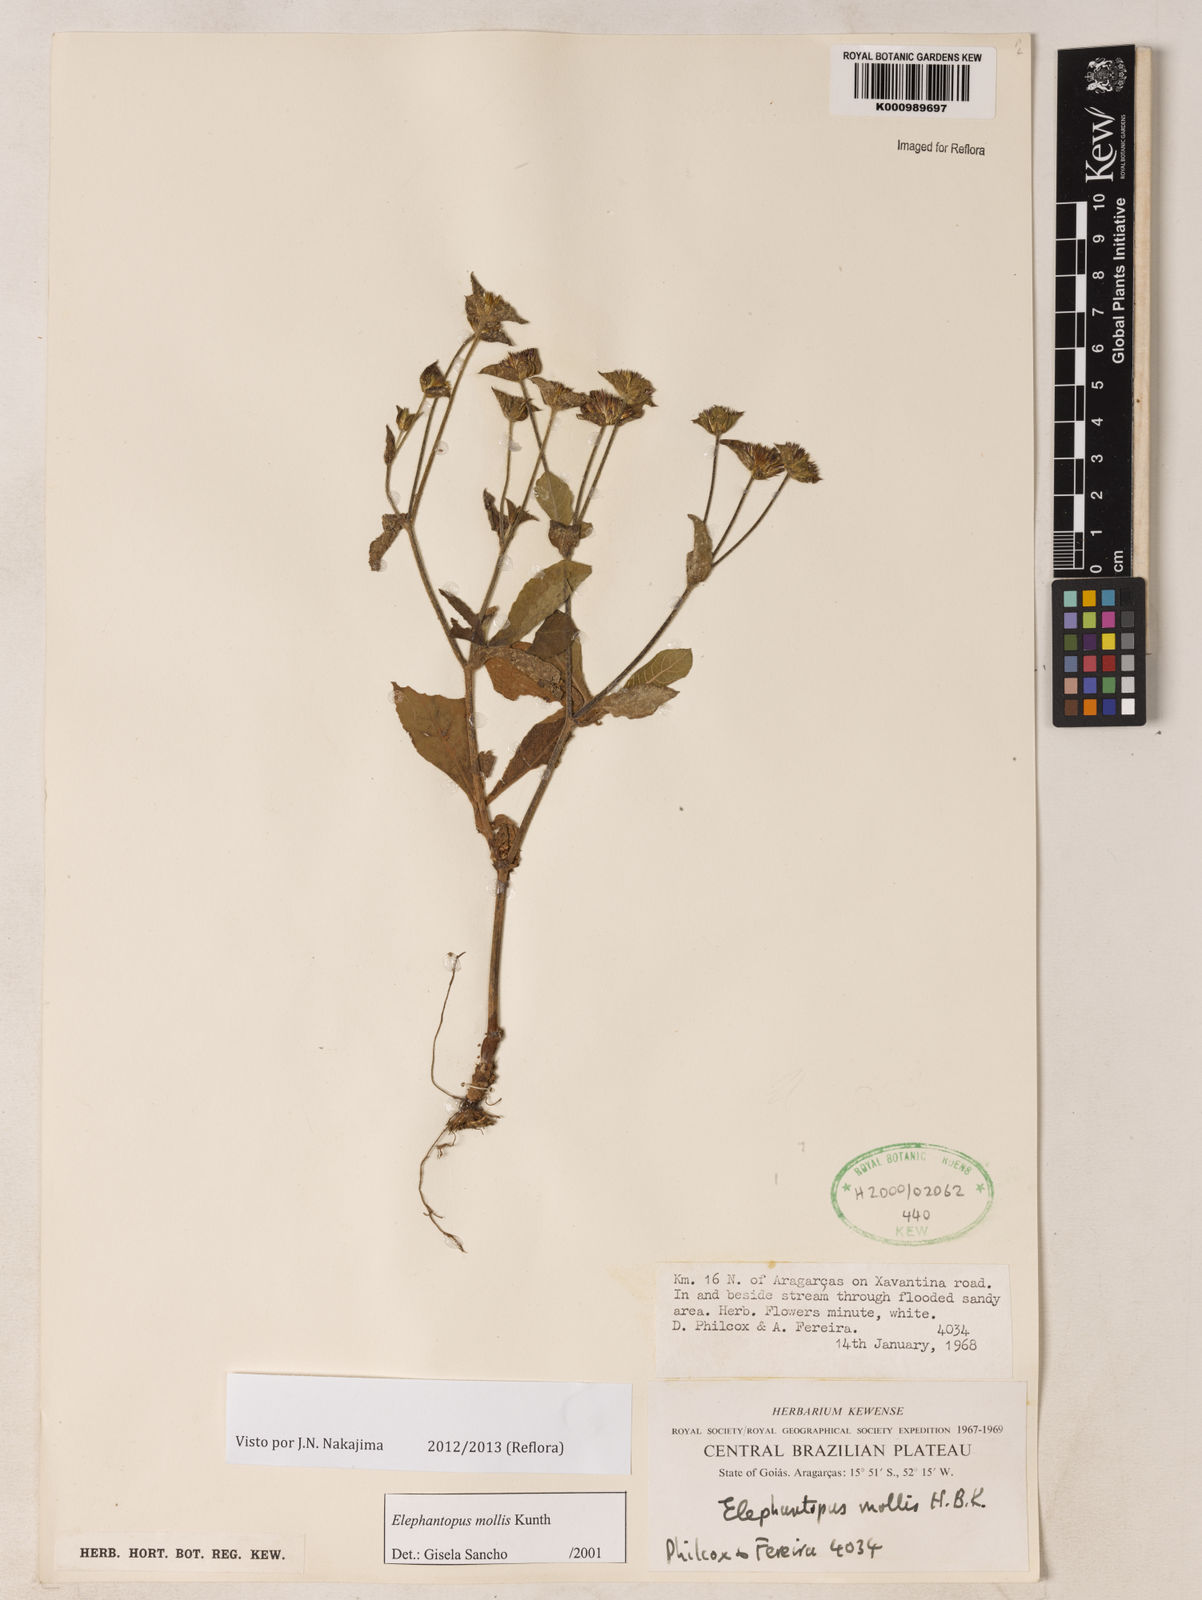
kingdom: Plantae
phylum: Tracheophyta
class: Magnoliopsida
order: Asterales
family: Asteraceae
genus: Elephantopus
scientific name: Elephantopus mollis
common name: Soft elephantsfoot
